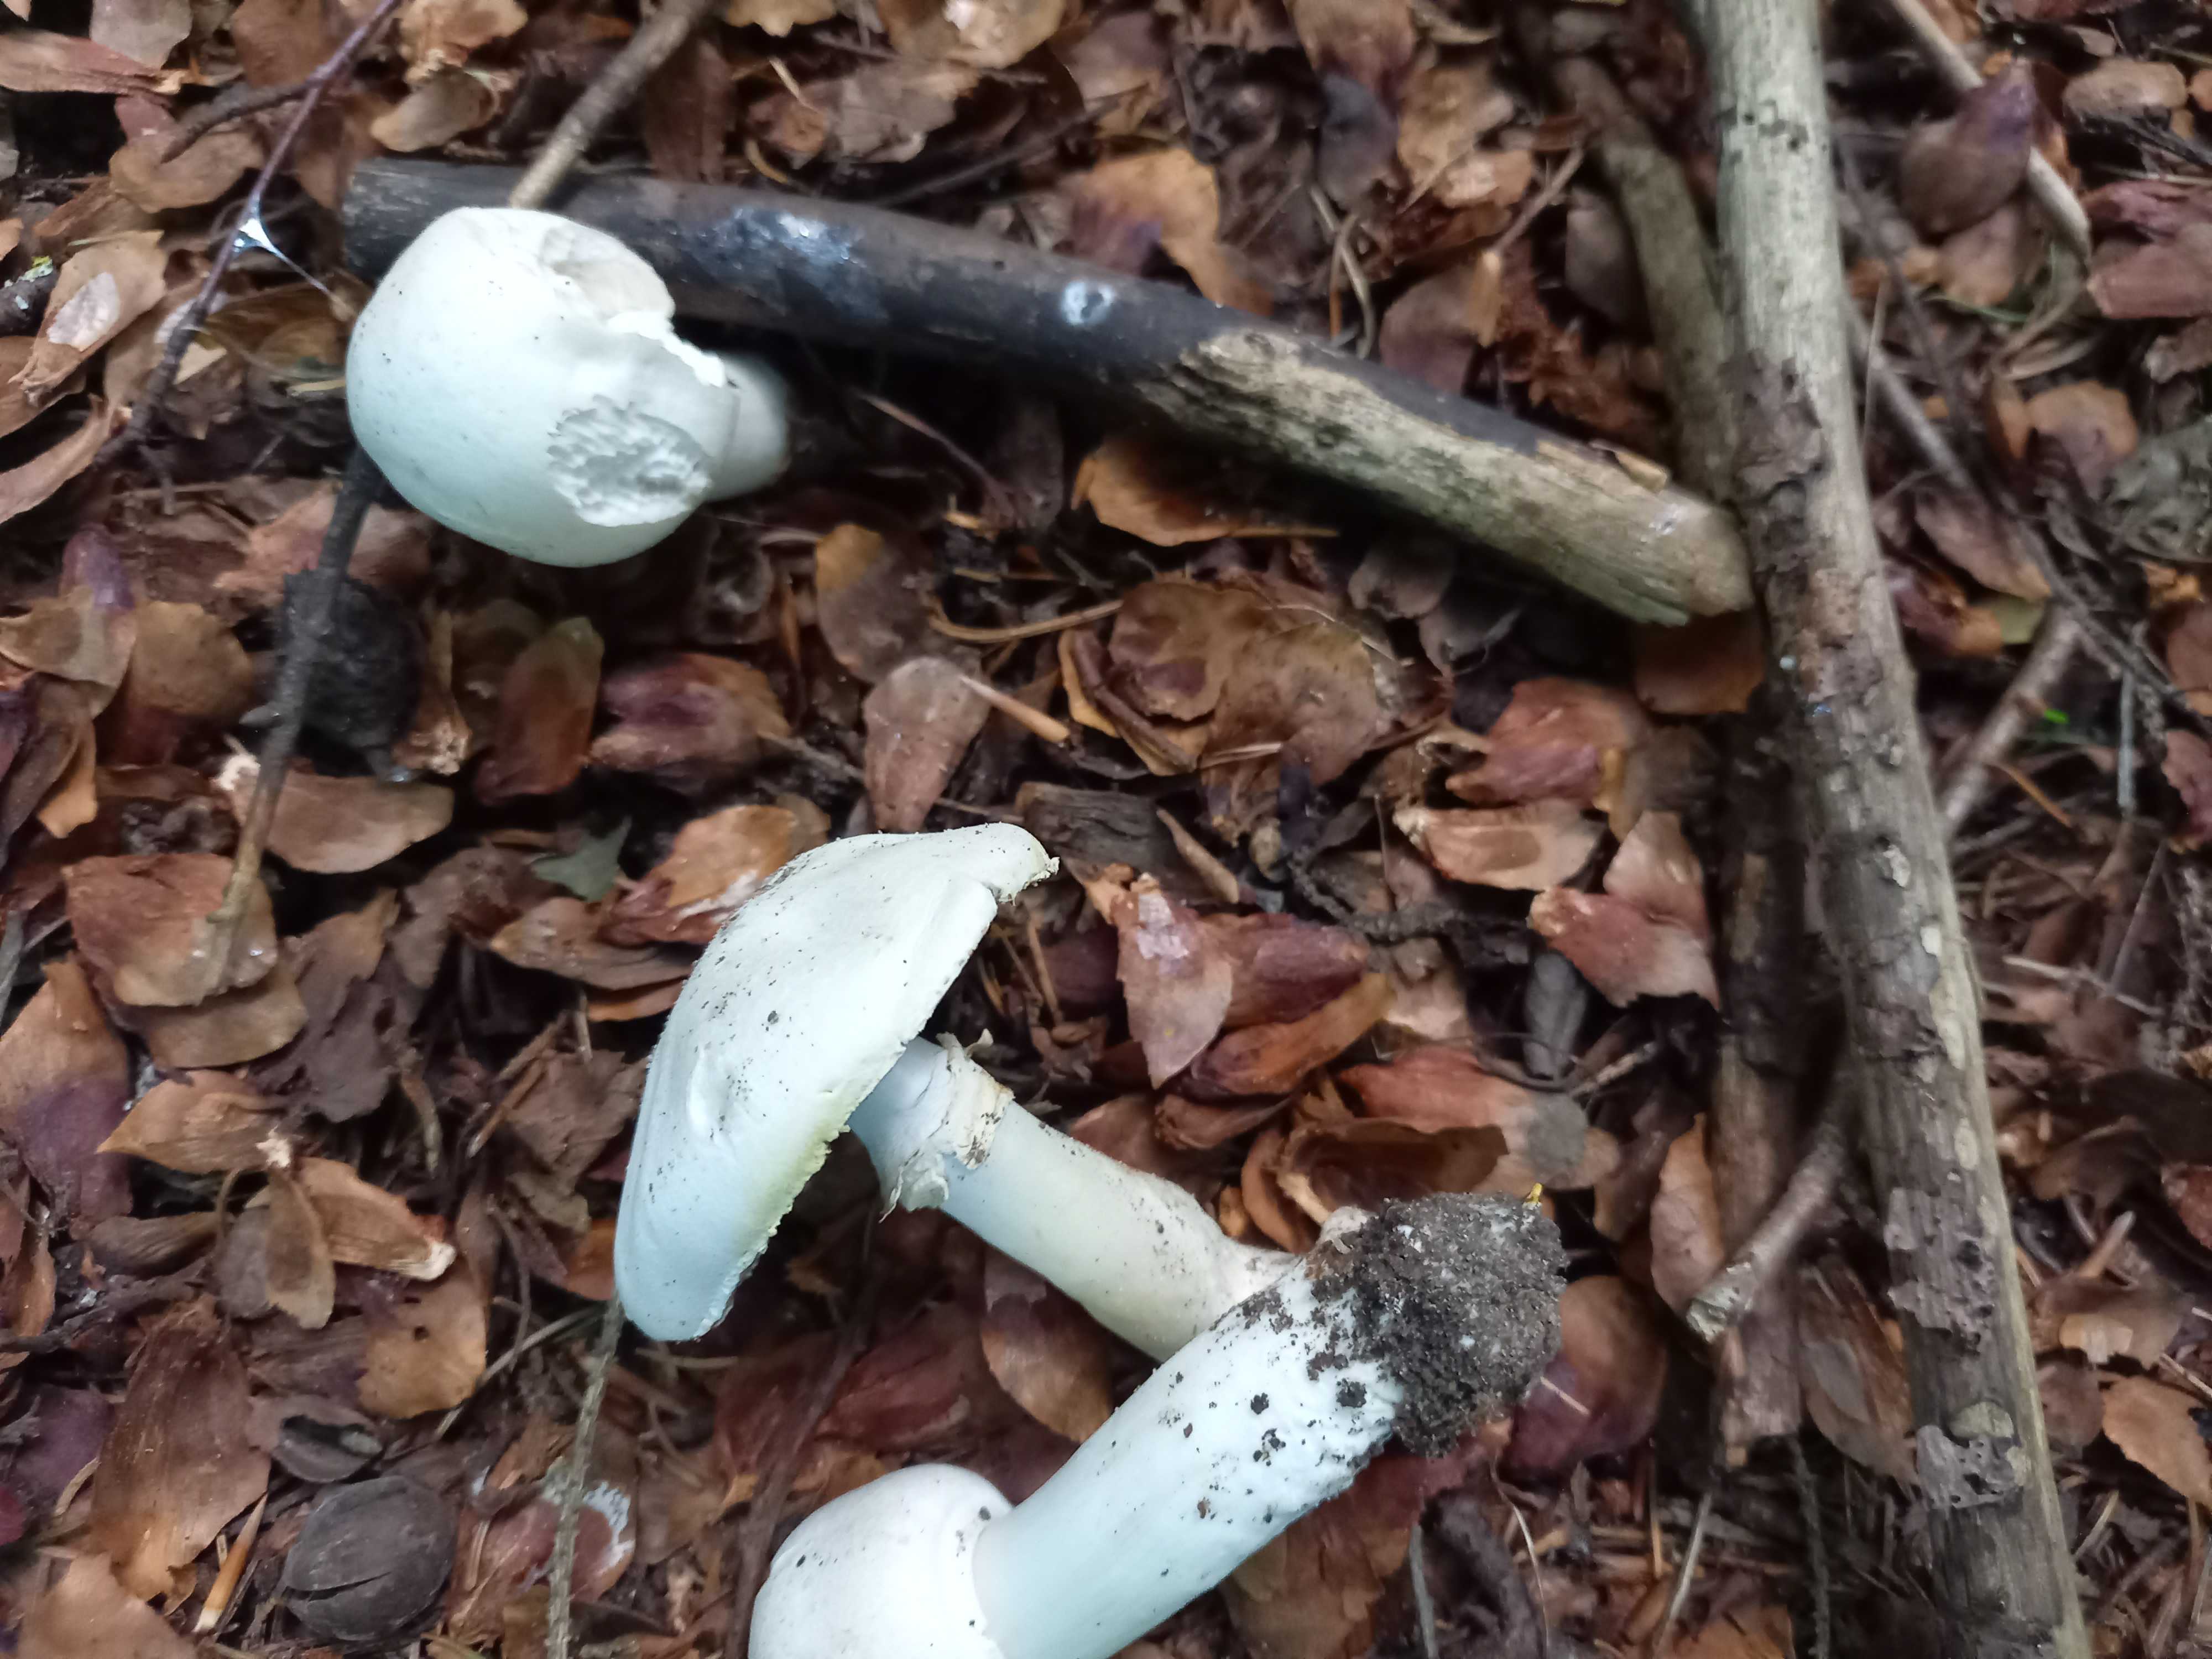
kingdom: Fungi
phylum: Basidiomycota
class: Agaricomycetes
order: Agaricales
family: Agaricaceae
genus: Agaricus
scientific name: Agaricus xanthodermus
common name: karbol-champignon
